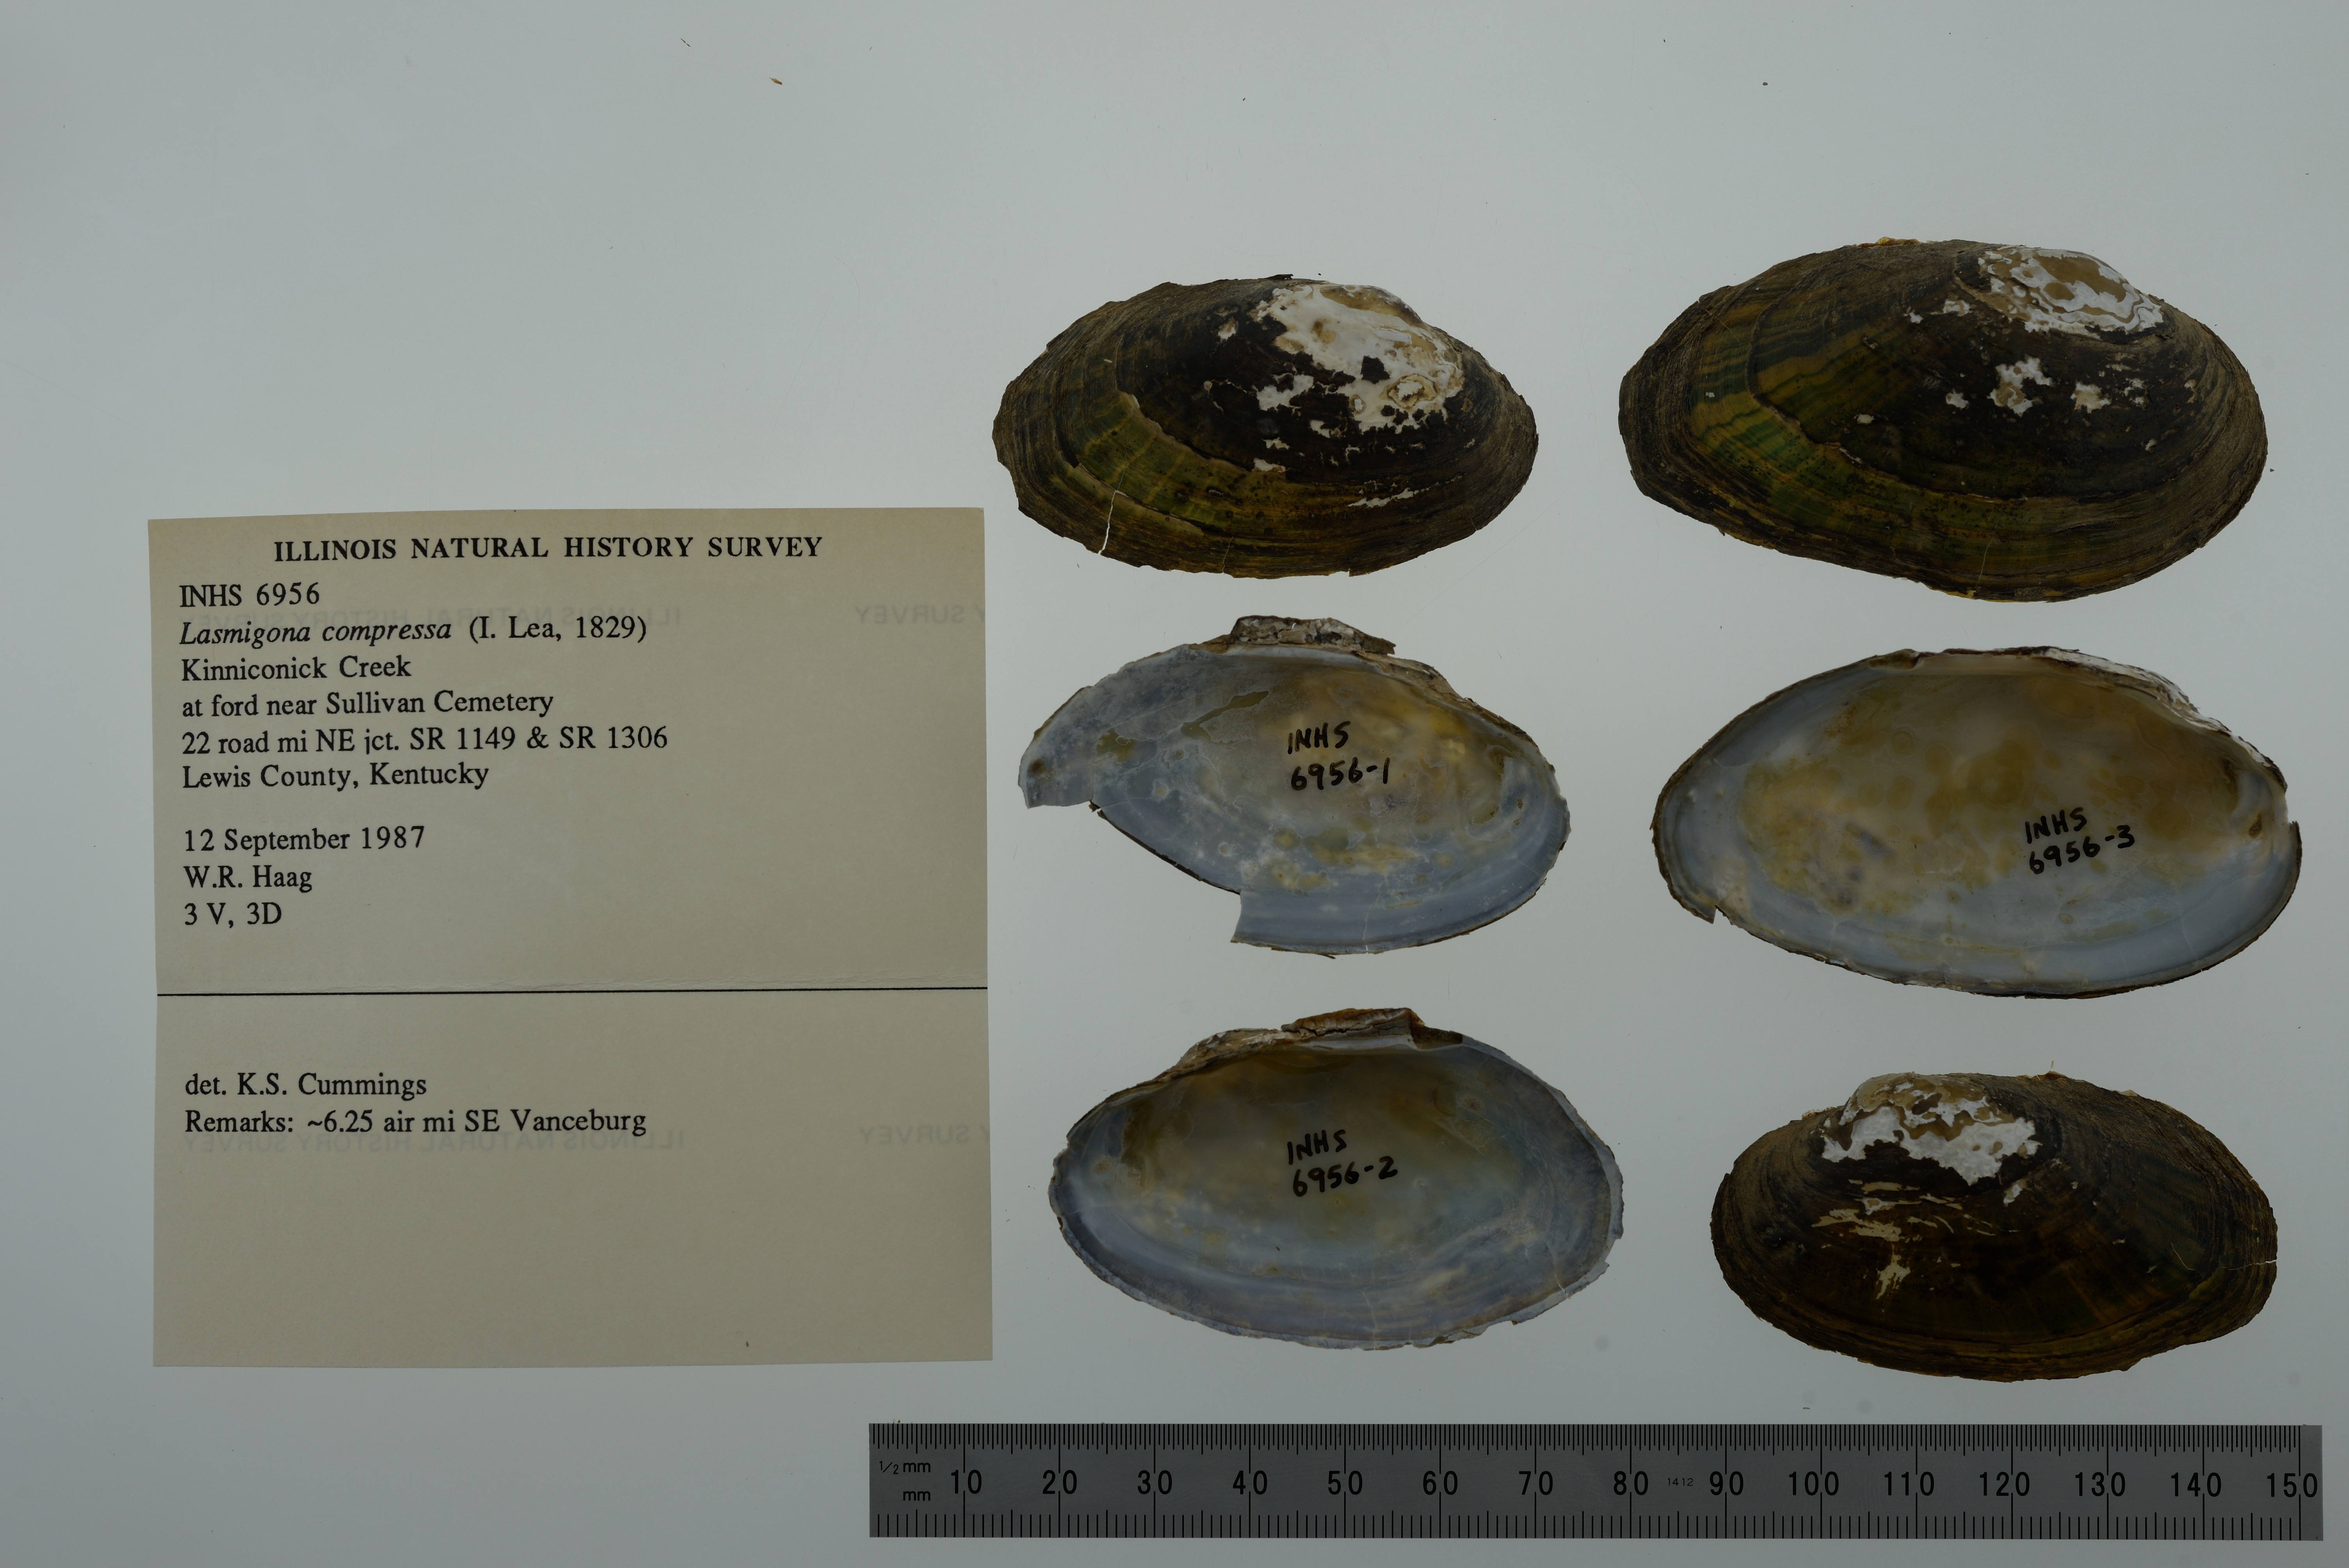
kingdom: Animalia
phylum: Mollusca
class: Bivalvia
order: Unionida
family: Unionidae
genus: Lasmigona
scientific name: Lasmigona compressa
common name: Creek heelsplitter
